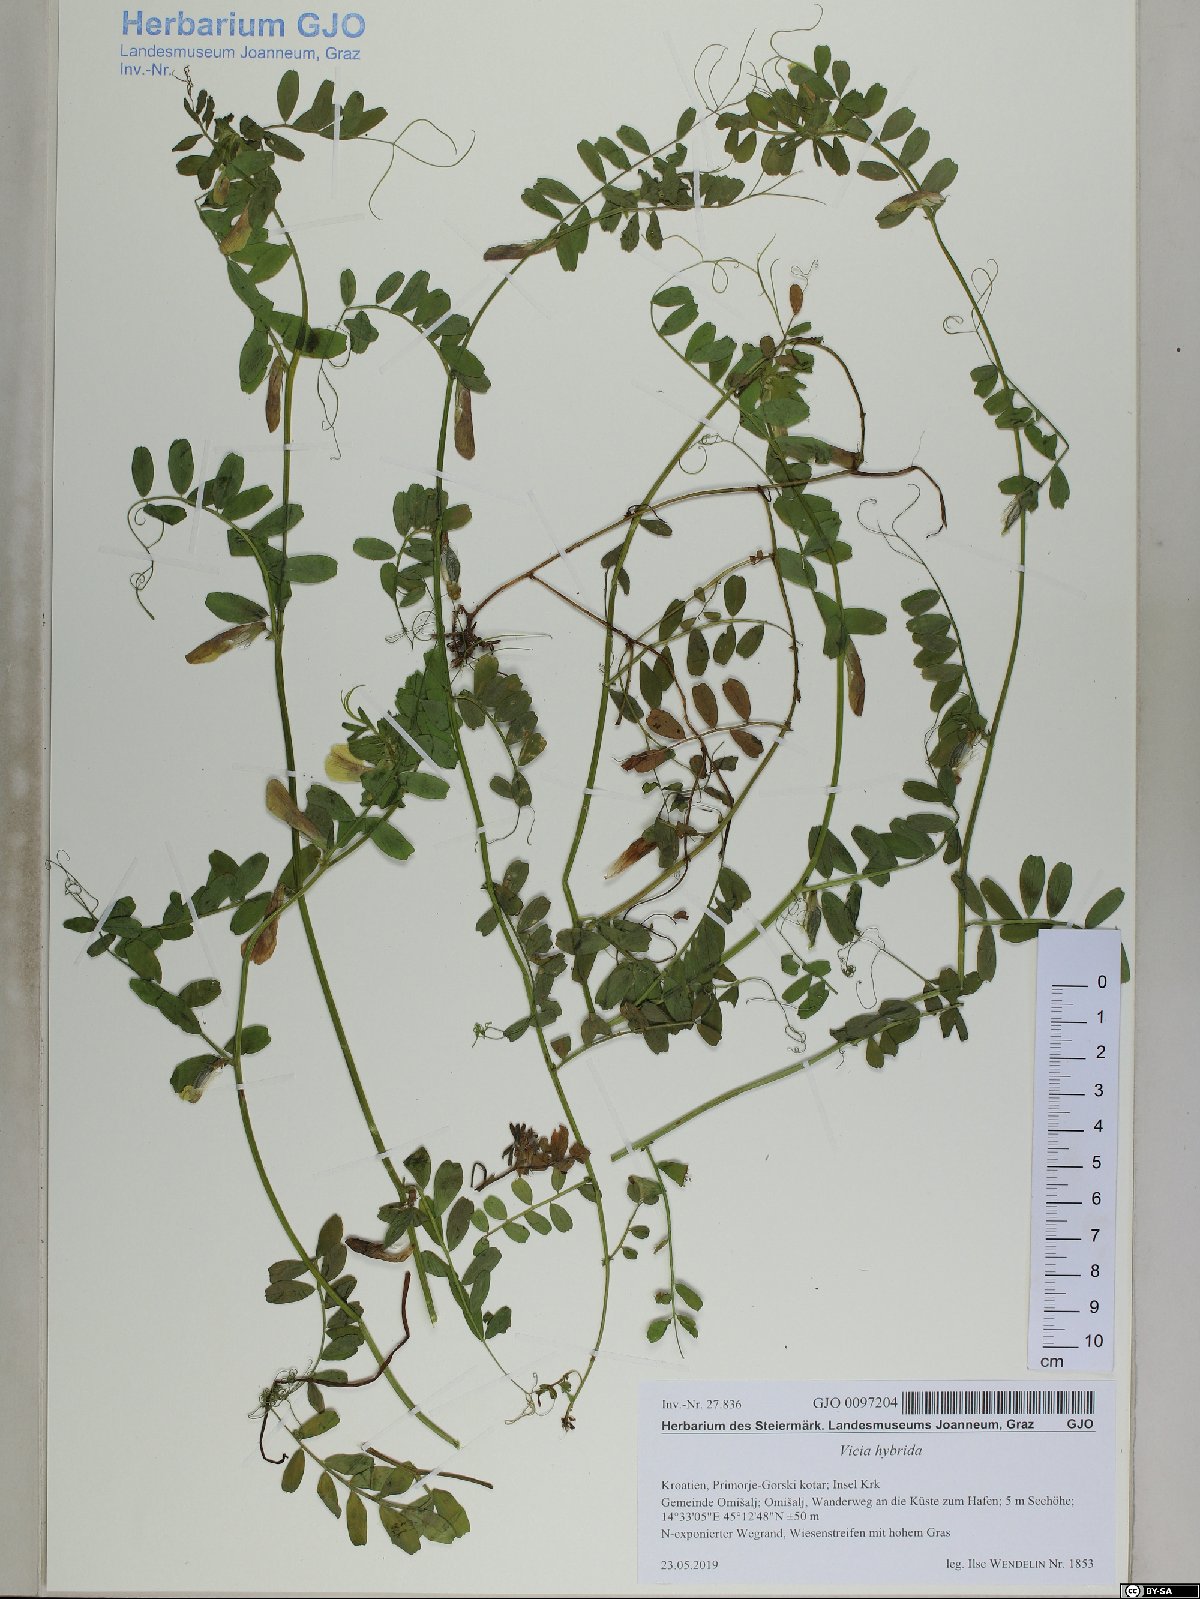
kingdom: Plantae
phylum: Tracheophyta
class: Magnoliopsida
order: Fabales
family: Fabaceae
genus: Vicia
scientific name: Vicia hybrida
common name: Hairy yellow vetch
